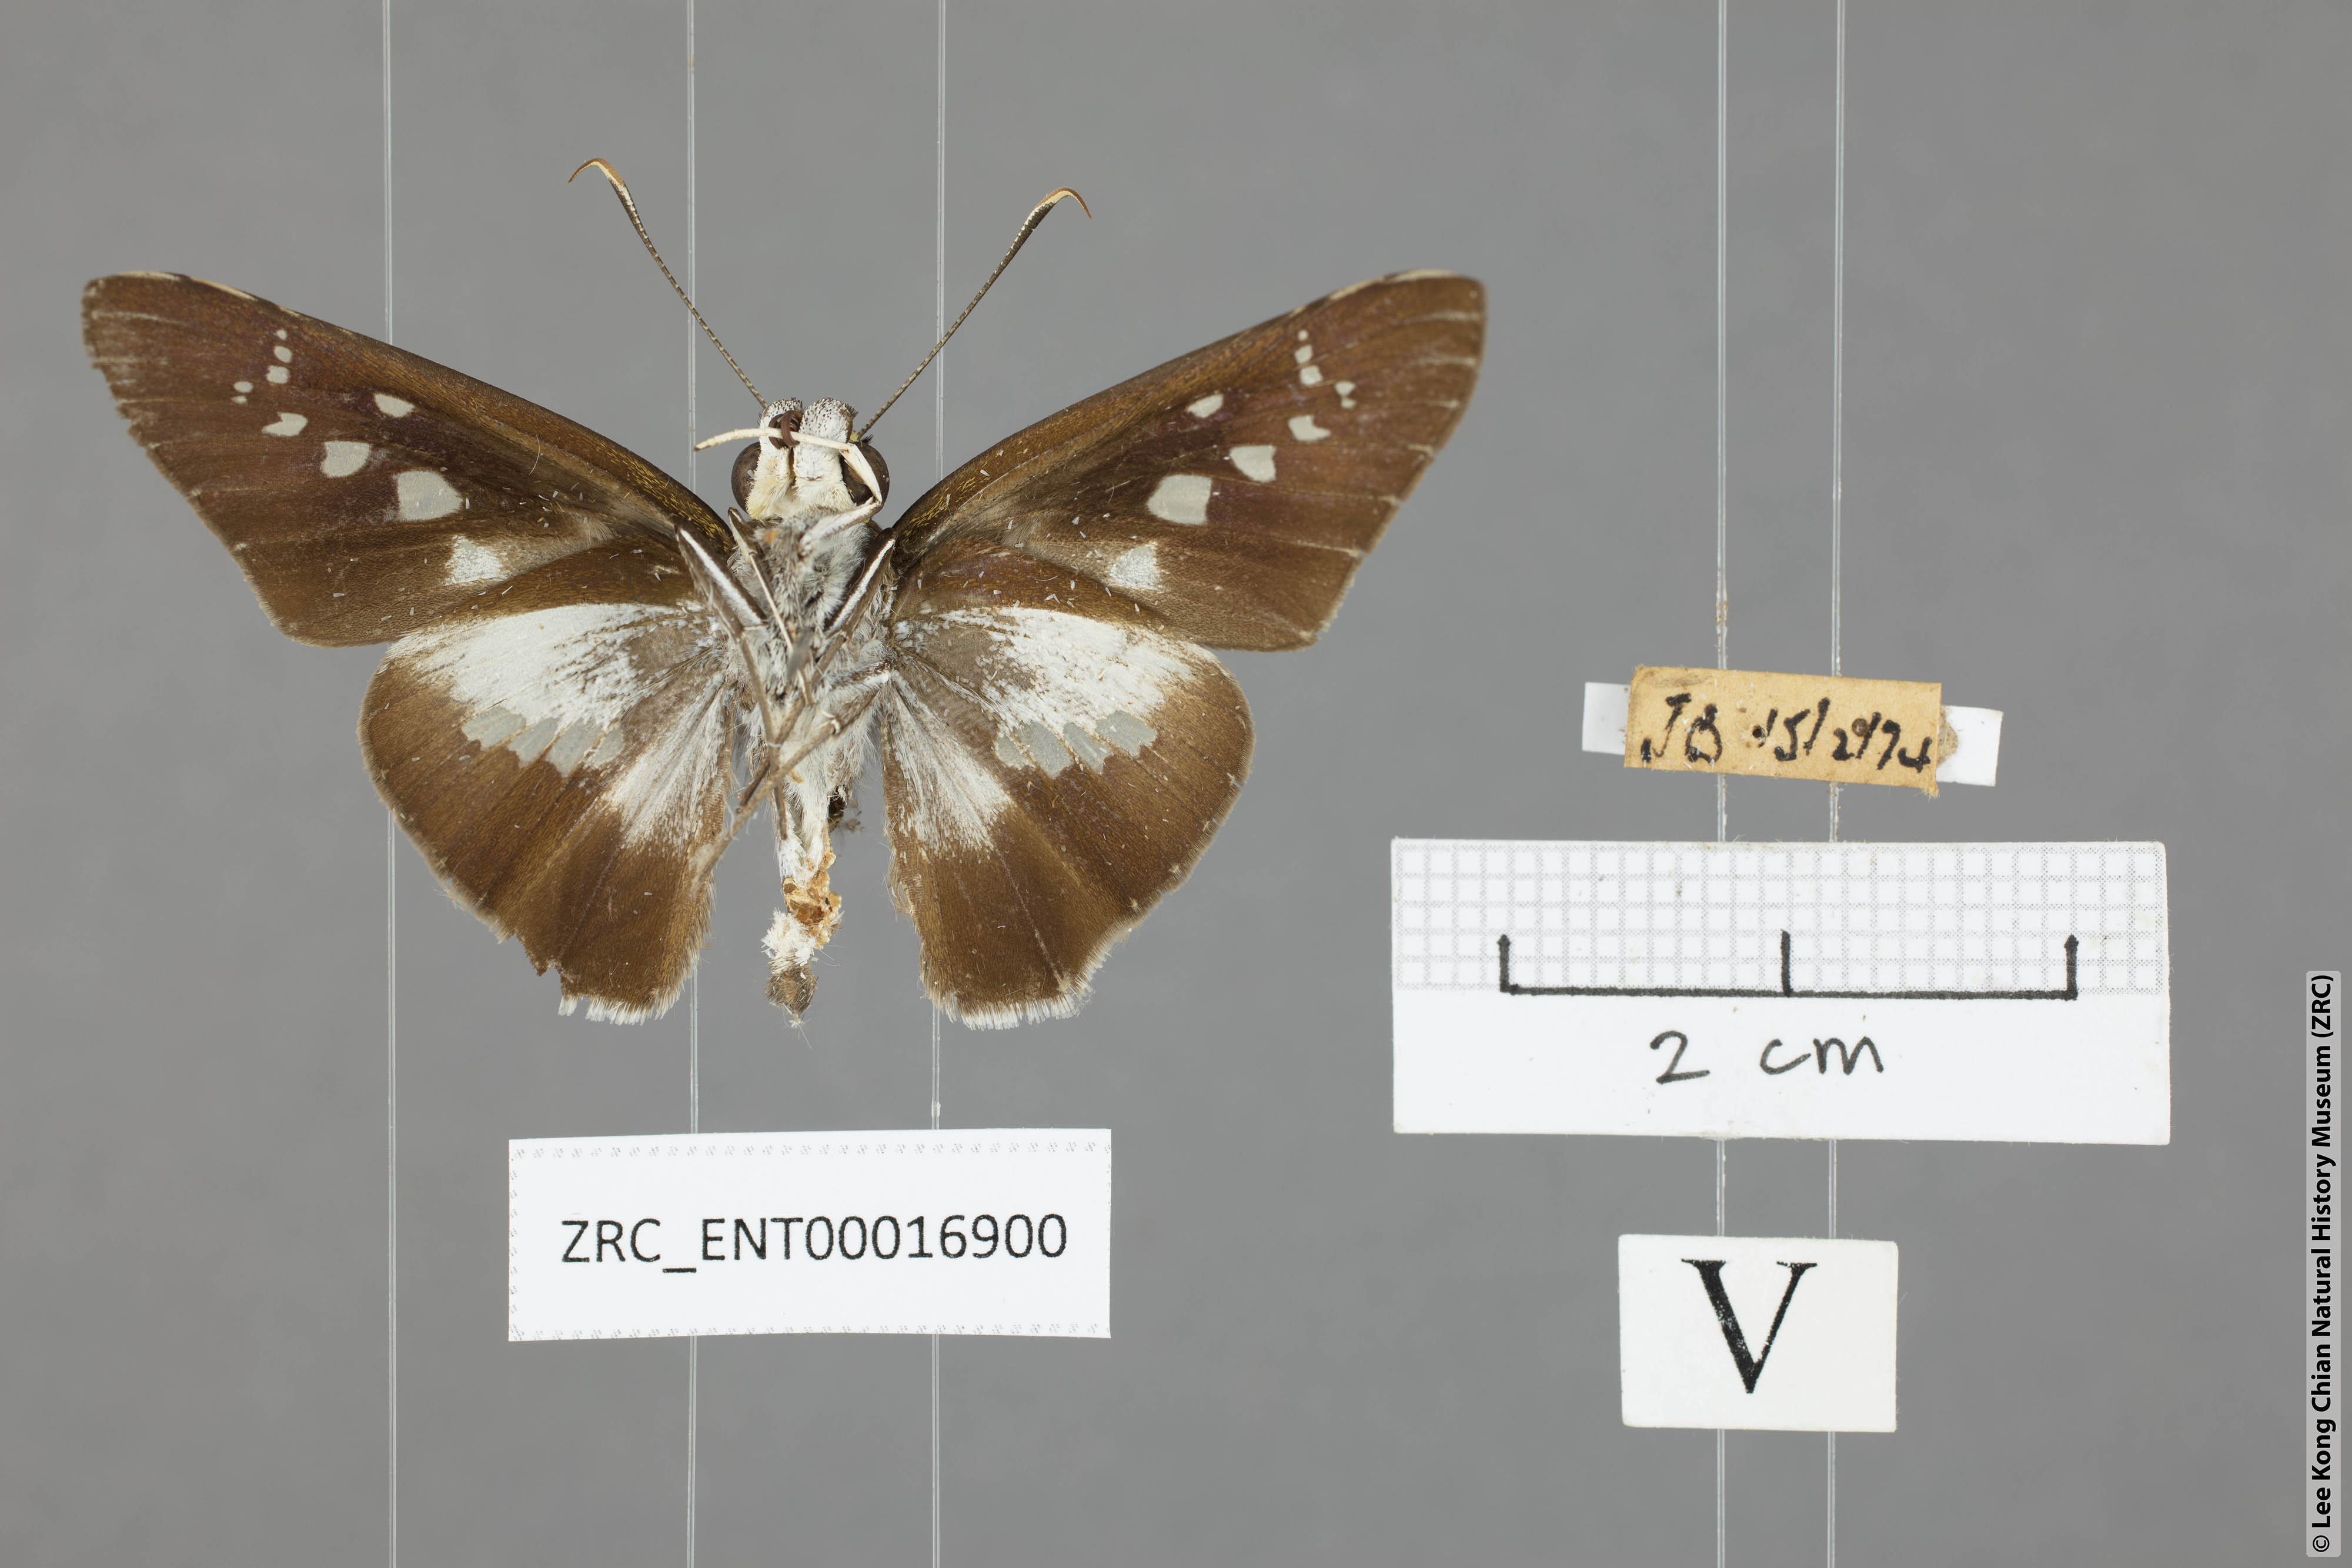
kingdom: Animalia
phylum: Arthropoda
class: Insecta
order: Lepidoptera
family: Hesperiidae
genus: Eetion
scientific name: Eetion elia
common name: White spotted palmer
